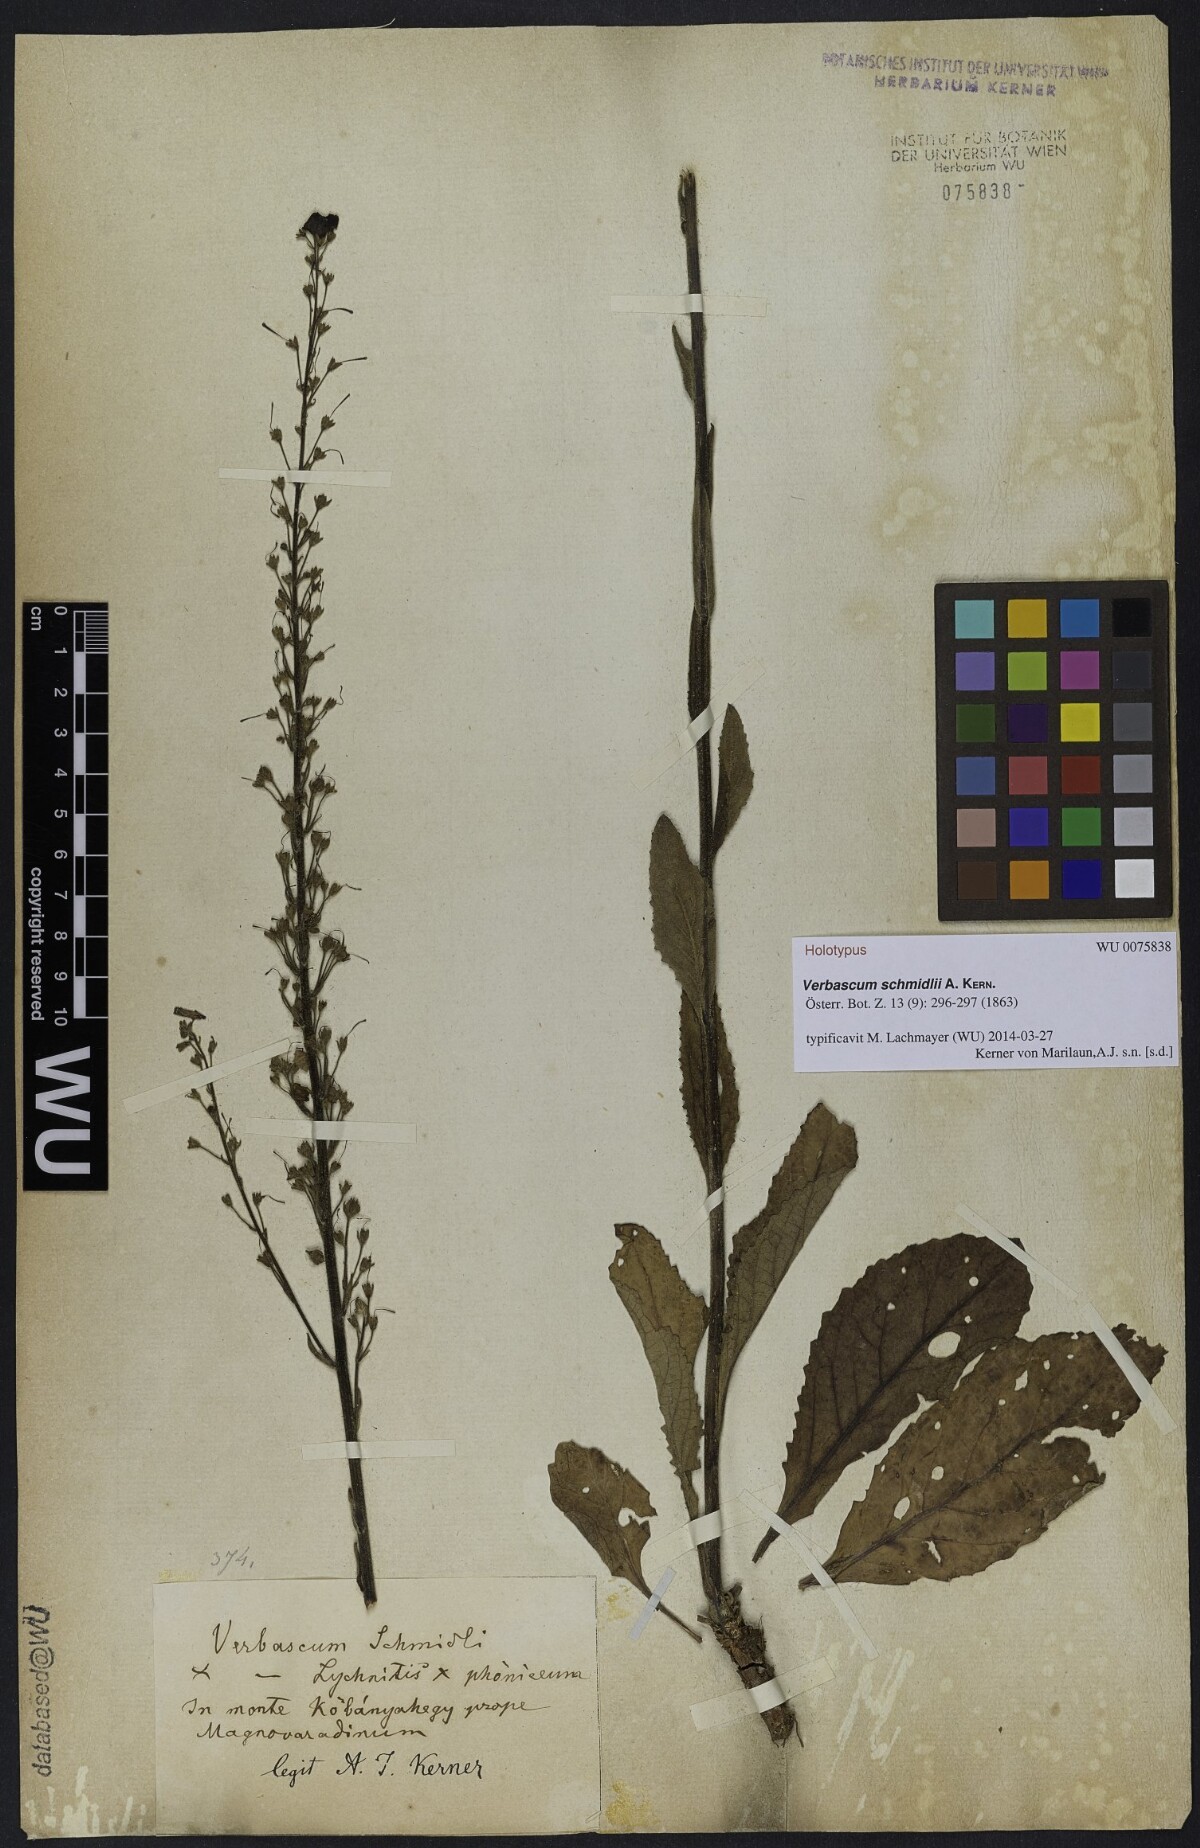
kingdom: Plantae
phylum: Tracheophyta
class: Magnoliopsida
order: Lamiales
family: Scrophulariaceae
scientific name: Scrophulariaceae
